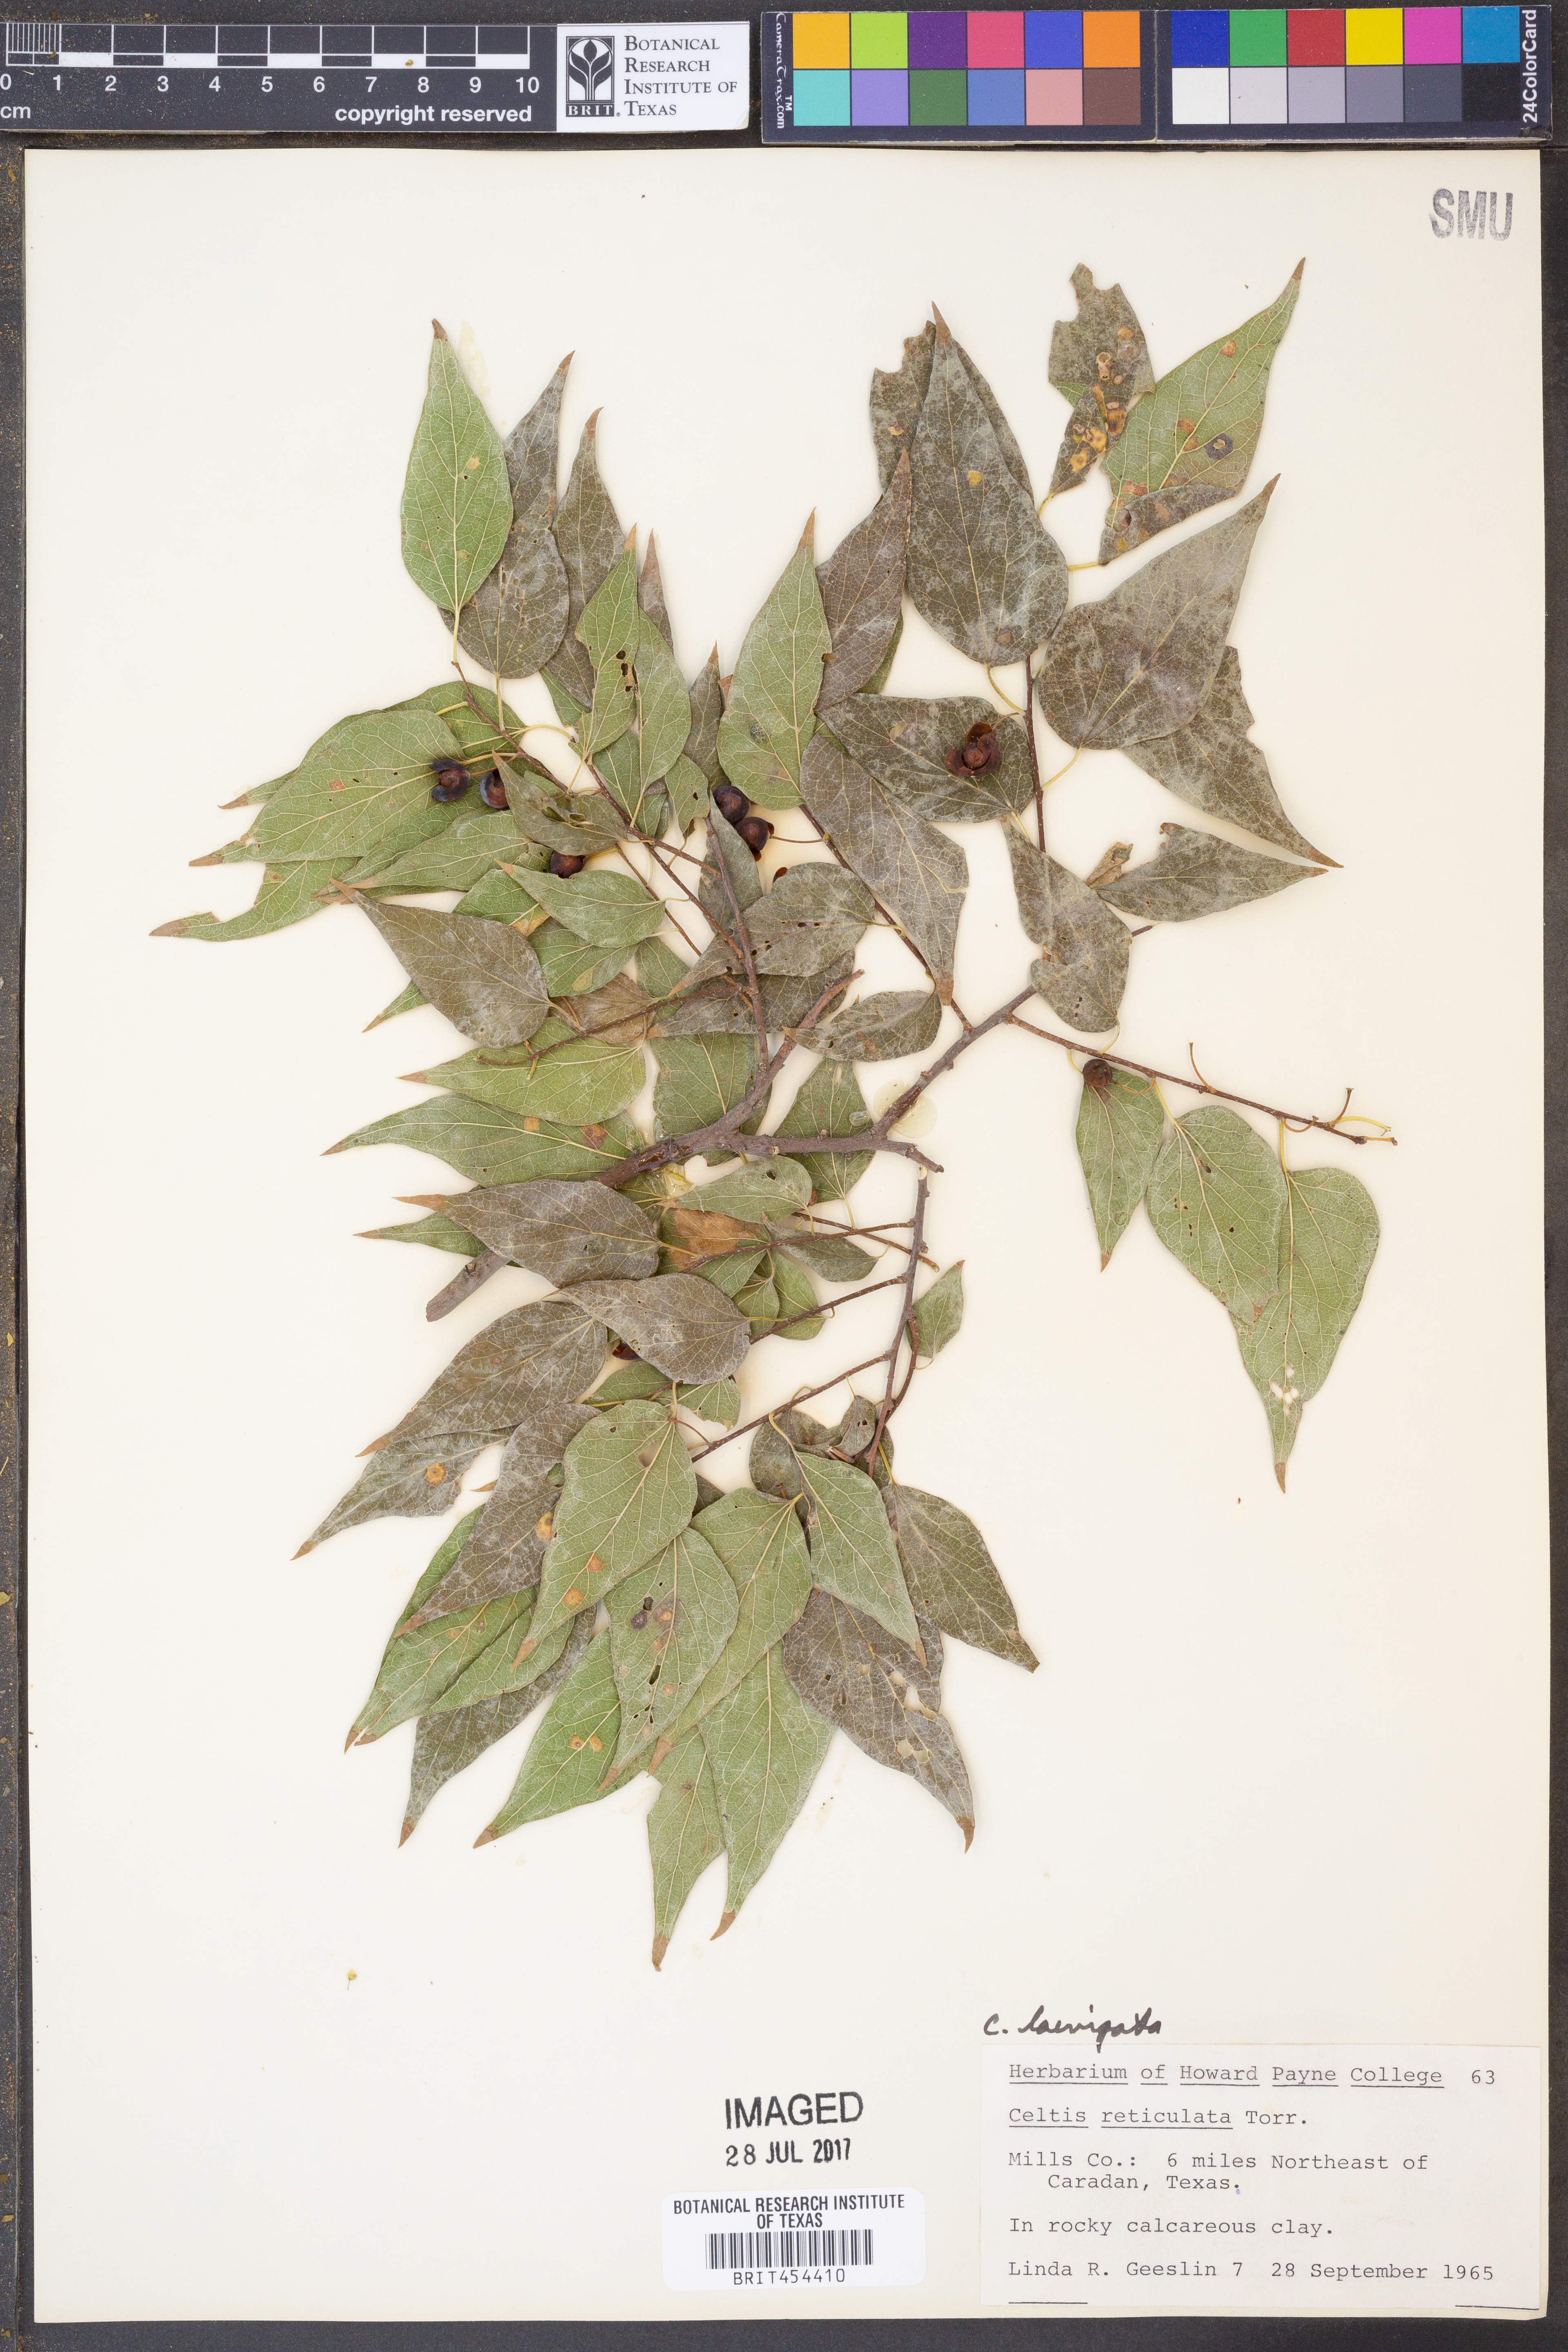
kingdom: Plantae
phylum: Tracheophyta
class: Magnoliopsida
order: Rosales
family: Cannabaceae
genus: Celtis
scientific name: Celtis reticulata
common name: Netleaf hackberry
